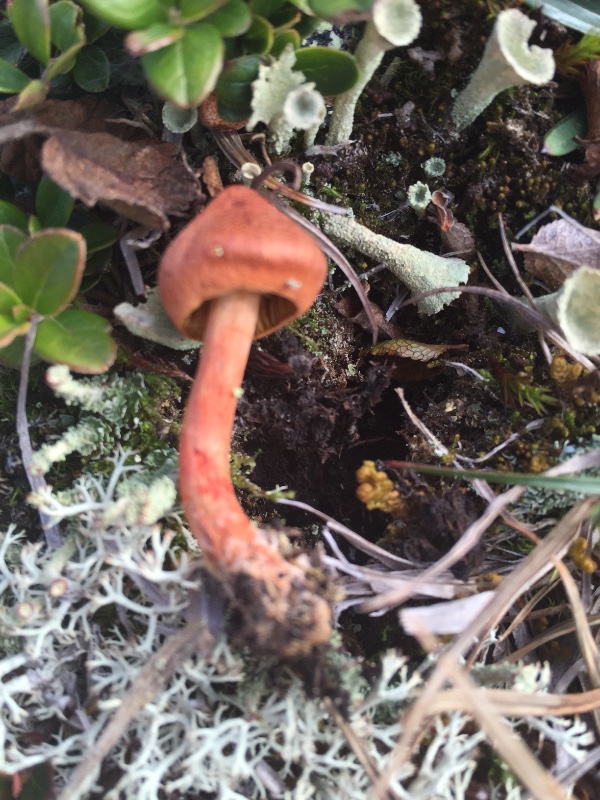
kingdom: Fungi
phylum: Basidiomycota
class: Agaricomycetes
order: Agaricales
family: Cortinariaceae
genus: Cortinarius
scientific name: Cortinarius uliginosus
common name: mose-slørhat
